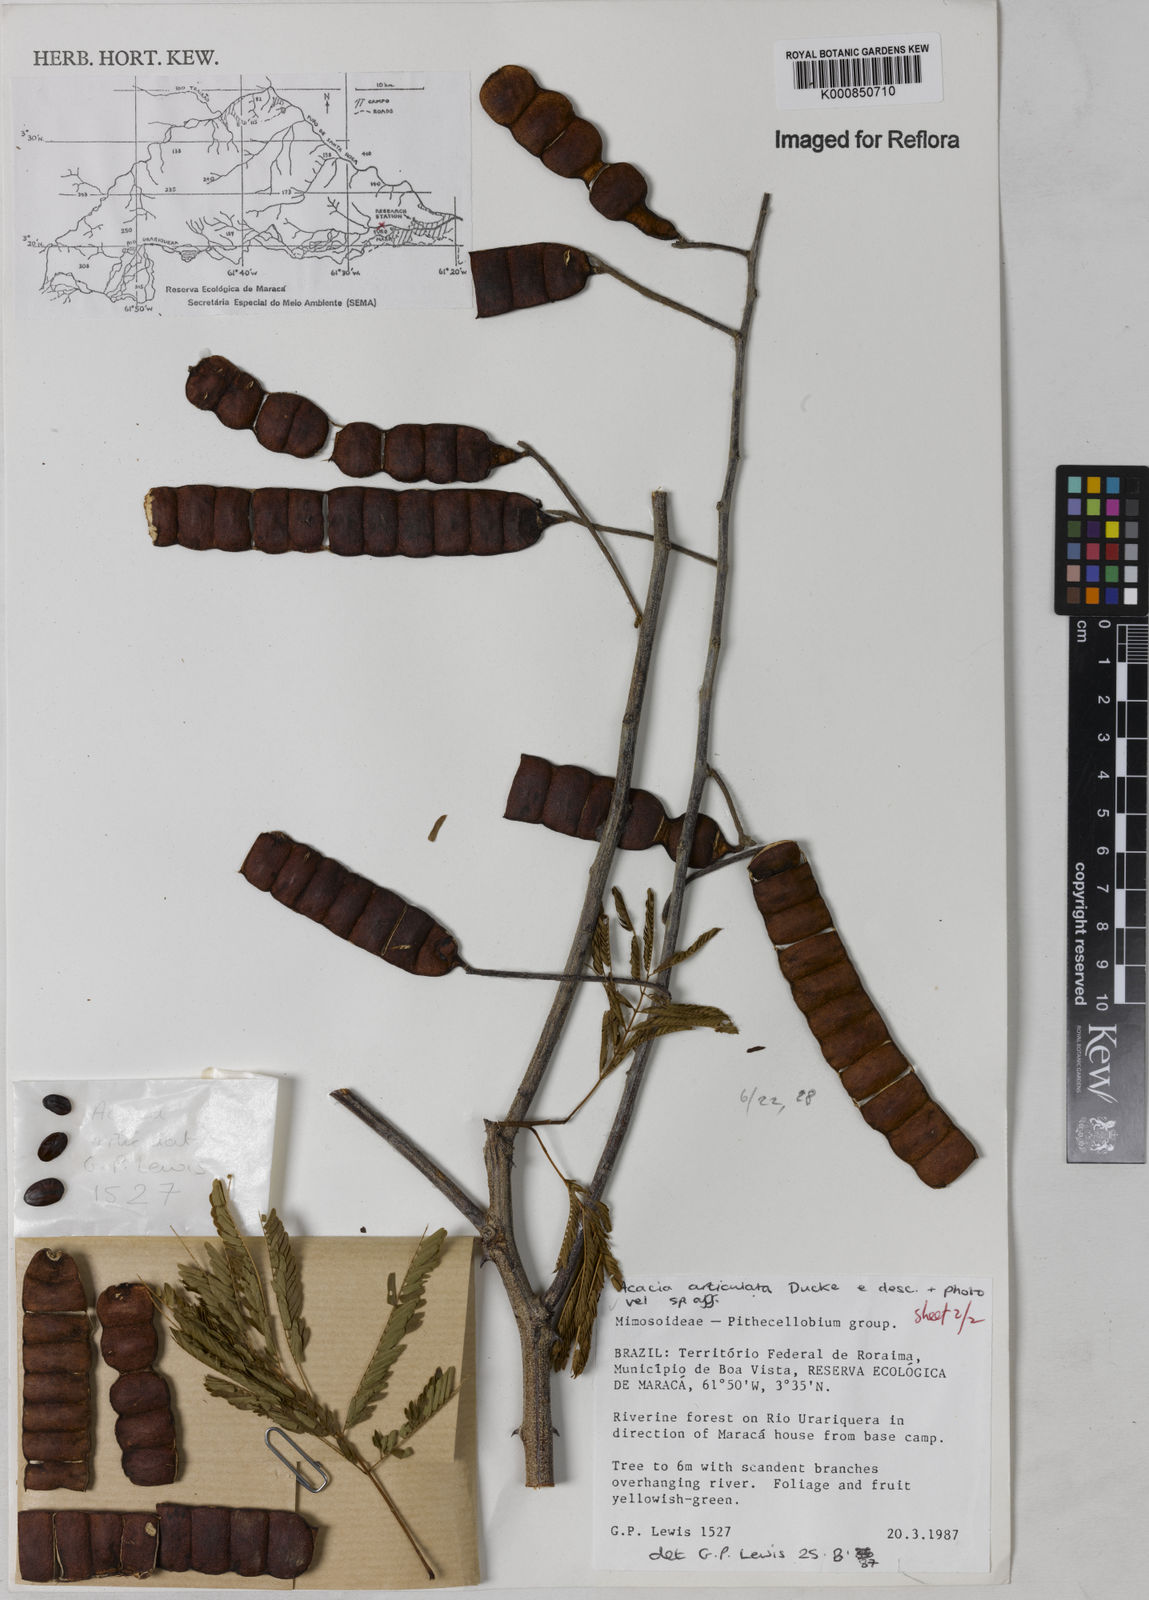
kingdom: Plantae
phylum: Tracheophyta
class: Magnoliopsida
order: Fabales
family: Fabaceae
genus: Senegalia
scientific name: Senegalia rostrata
